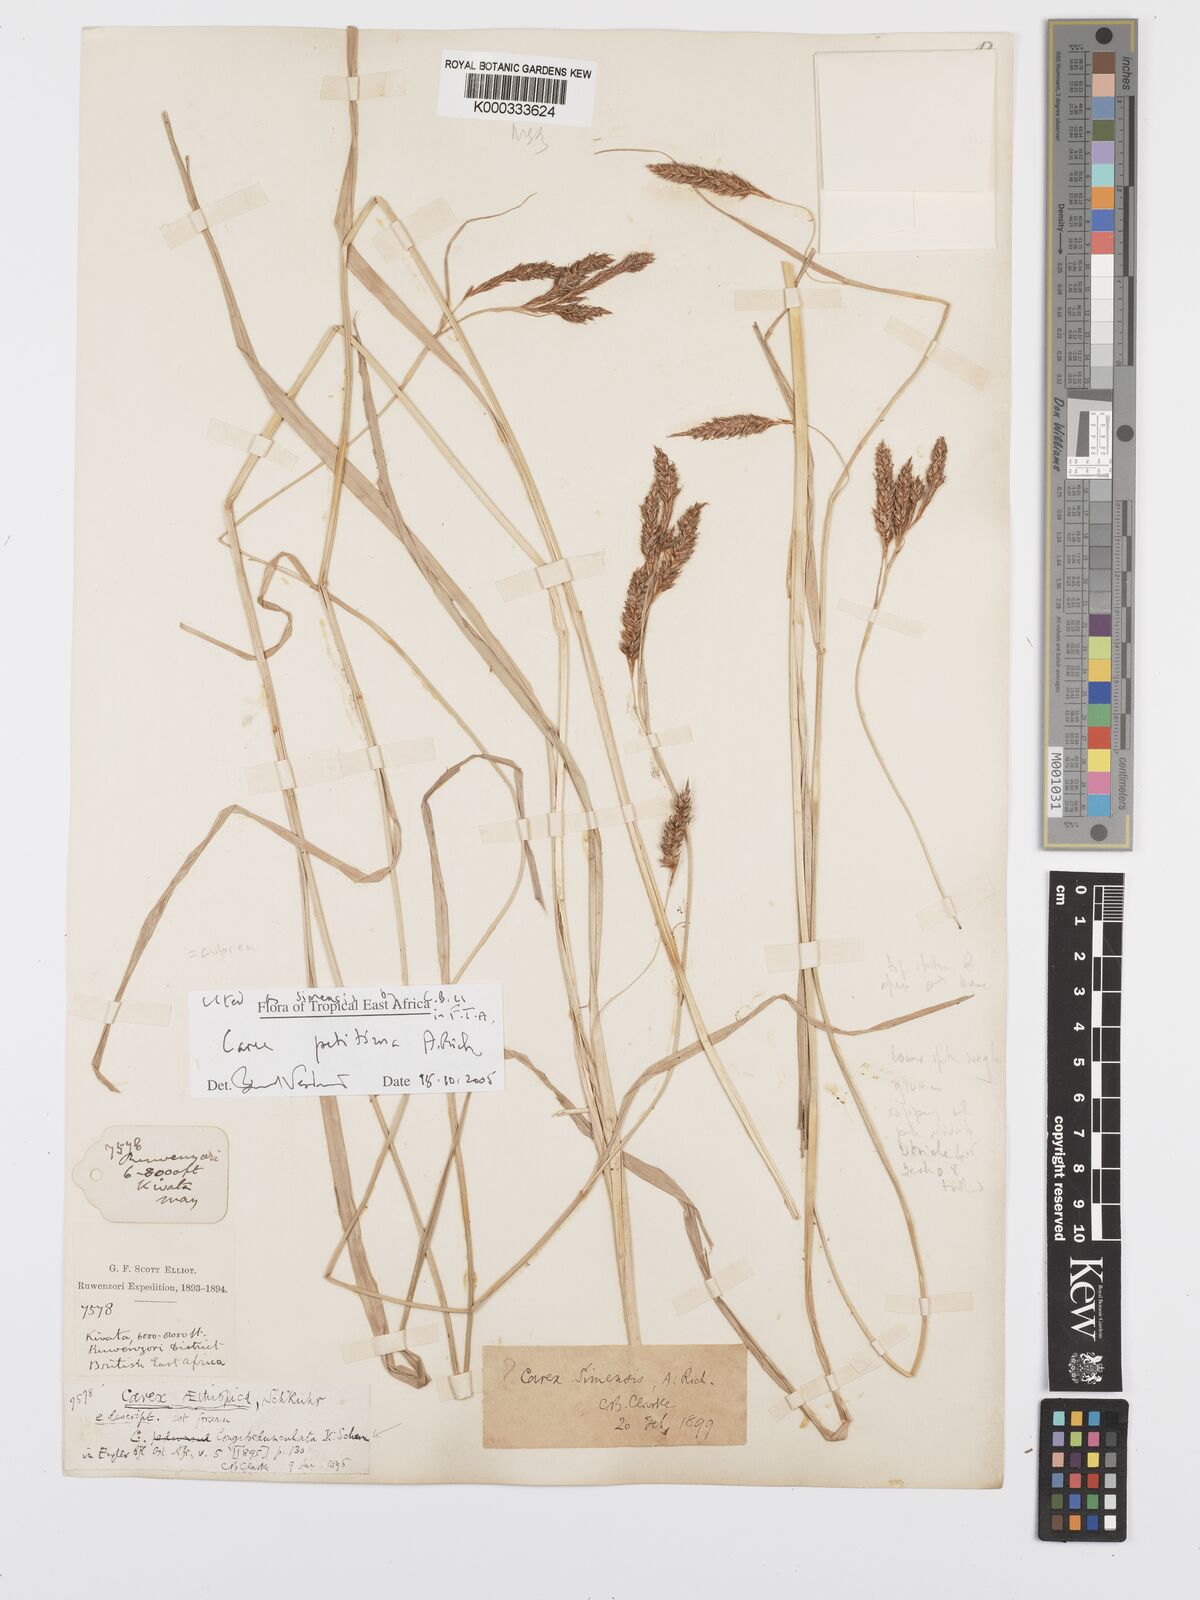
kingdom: Plantae
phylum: Tracheophyta
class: Liliopsida
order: Poales
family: Cyperaceae
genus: Carex
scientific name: Carex petitiana
